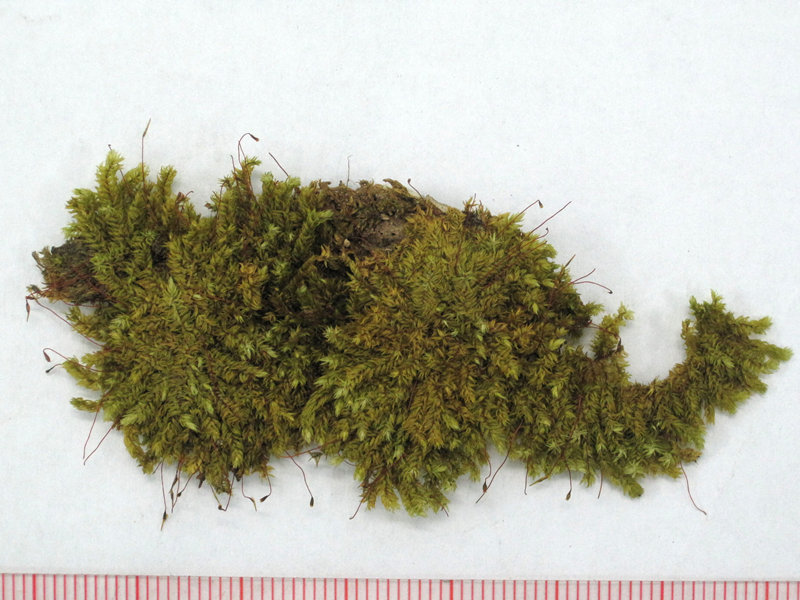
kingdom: Plantae
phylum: Bryophyta
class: Bryopsida
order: Hypnales
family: Sematophyllaceae
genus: Papillidiopsis
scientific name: Papillidiopsis ramulina
